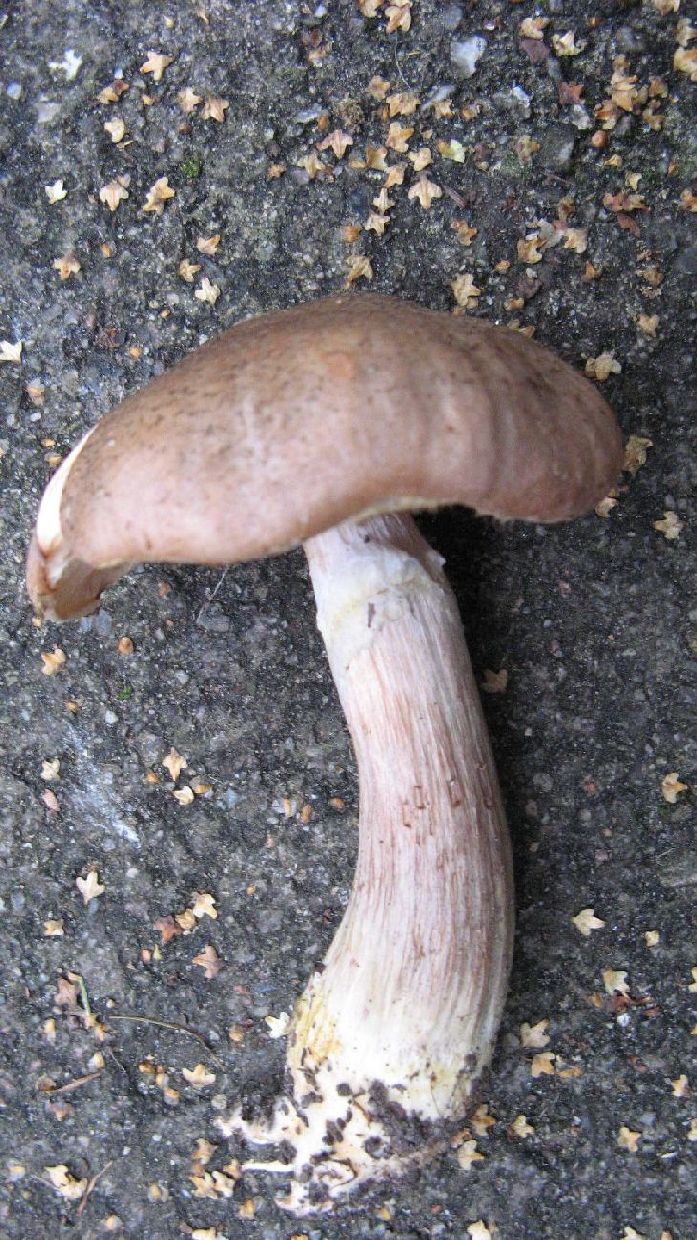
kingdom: Fungi
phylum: Basidiomycota
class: Agaricomycetes
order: Agaricales
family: Physalacriaceae
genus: Armillaria
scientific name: Armillaria lutea
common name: køllestokket honningsvamp
